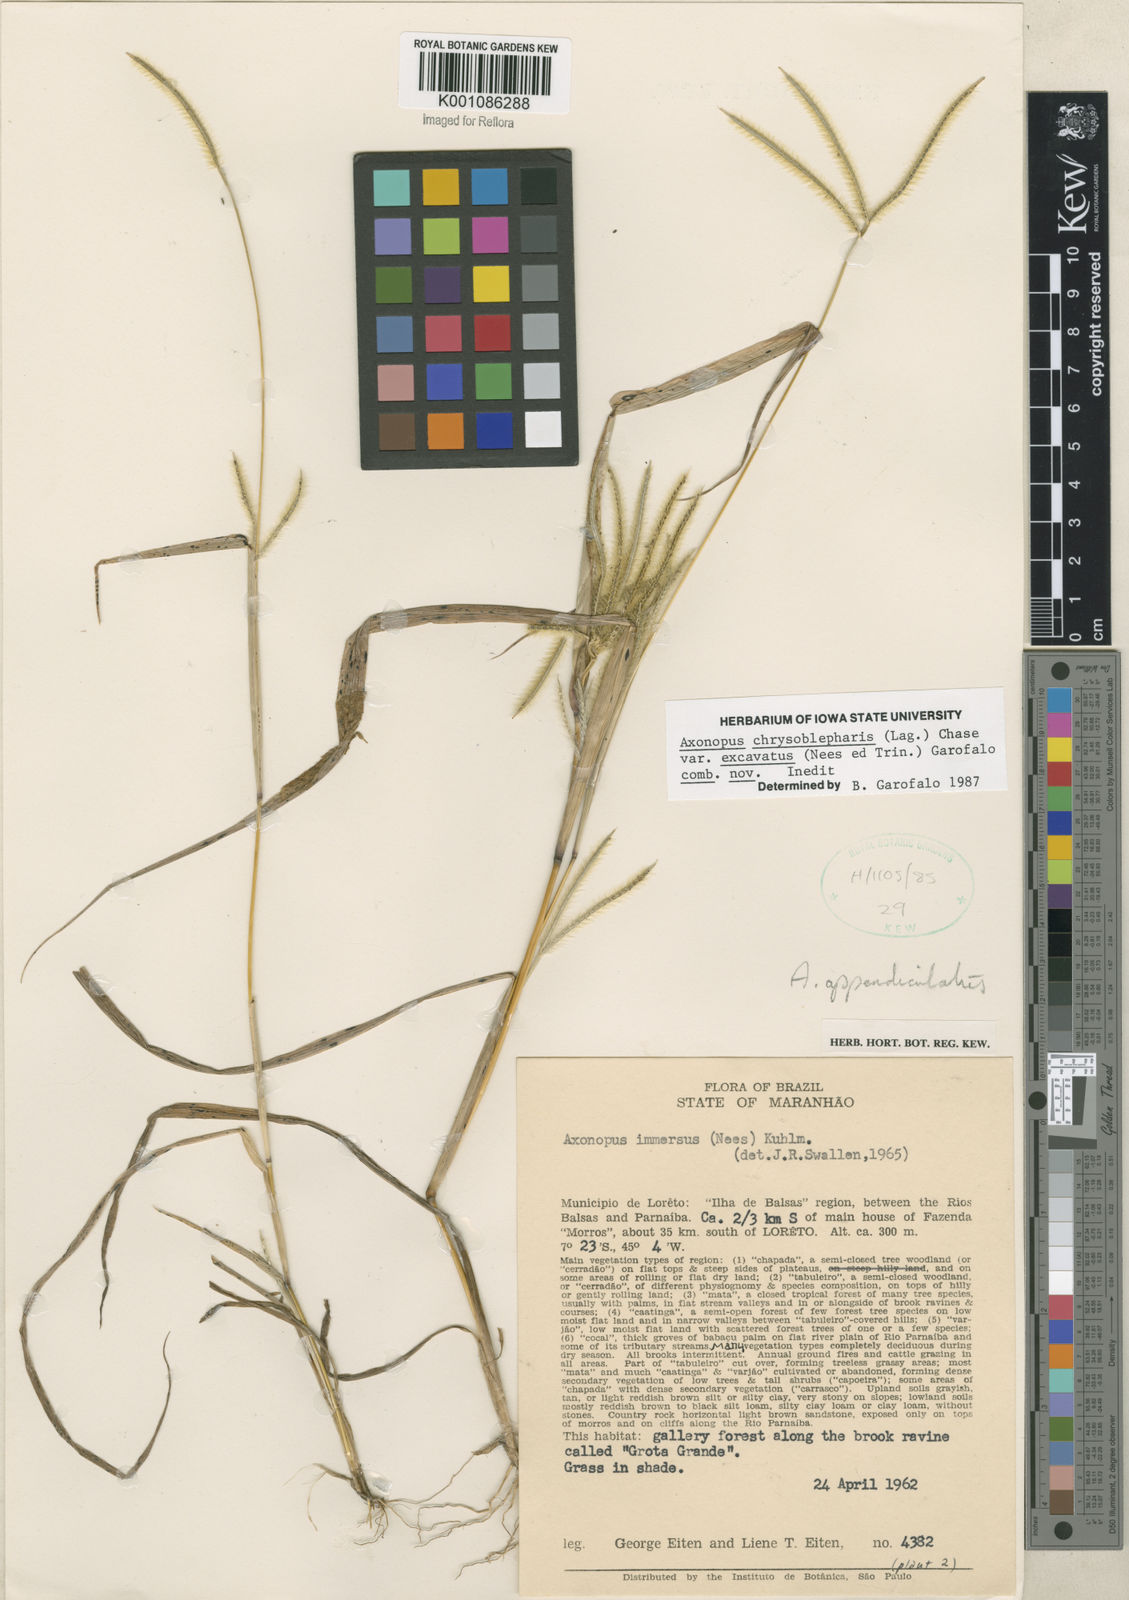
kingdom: Plantae
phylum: Tracheophyta
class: Liliopsida
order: Poales
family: Poaceae
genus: Axonopus
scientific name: Axonopus chrysoblepharis
